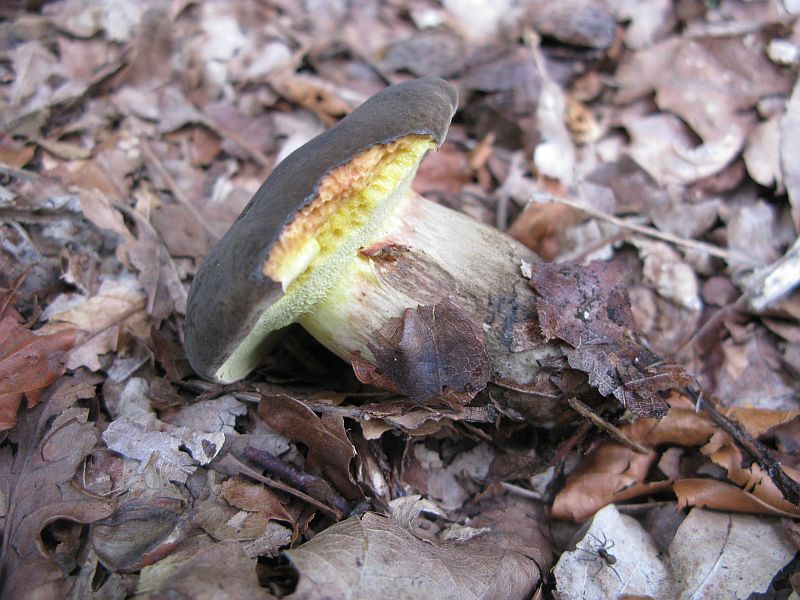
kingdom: Fungi
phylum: Basidiomycota
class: Agaricomycetes
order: Boletales
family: Boletaceae
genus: Xerocomellus
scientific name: Xerocomellus porosporus
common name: hvidsprukken rørhat
